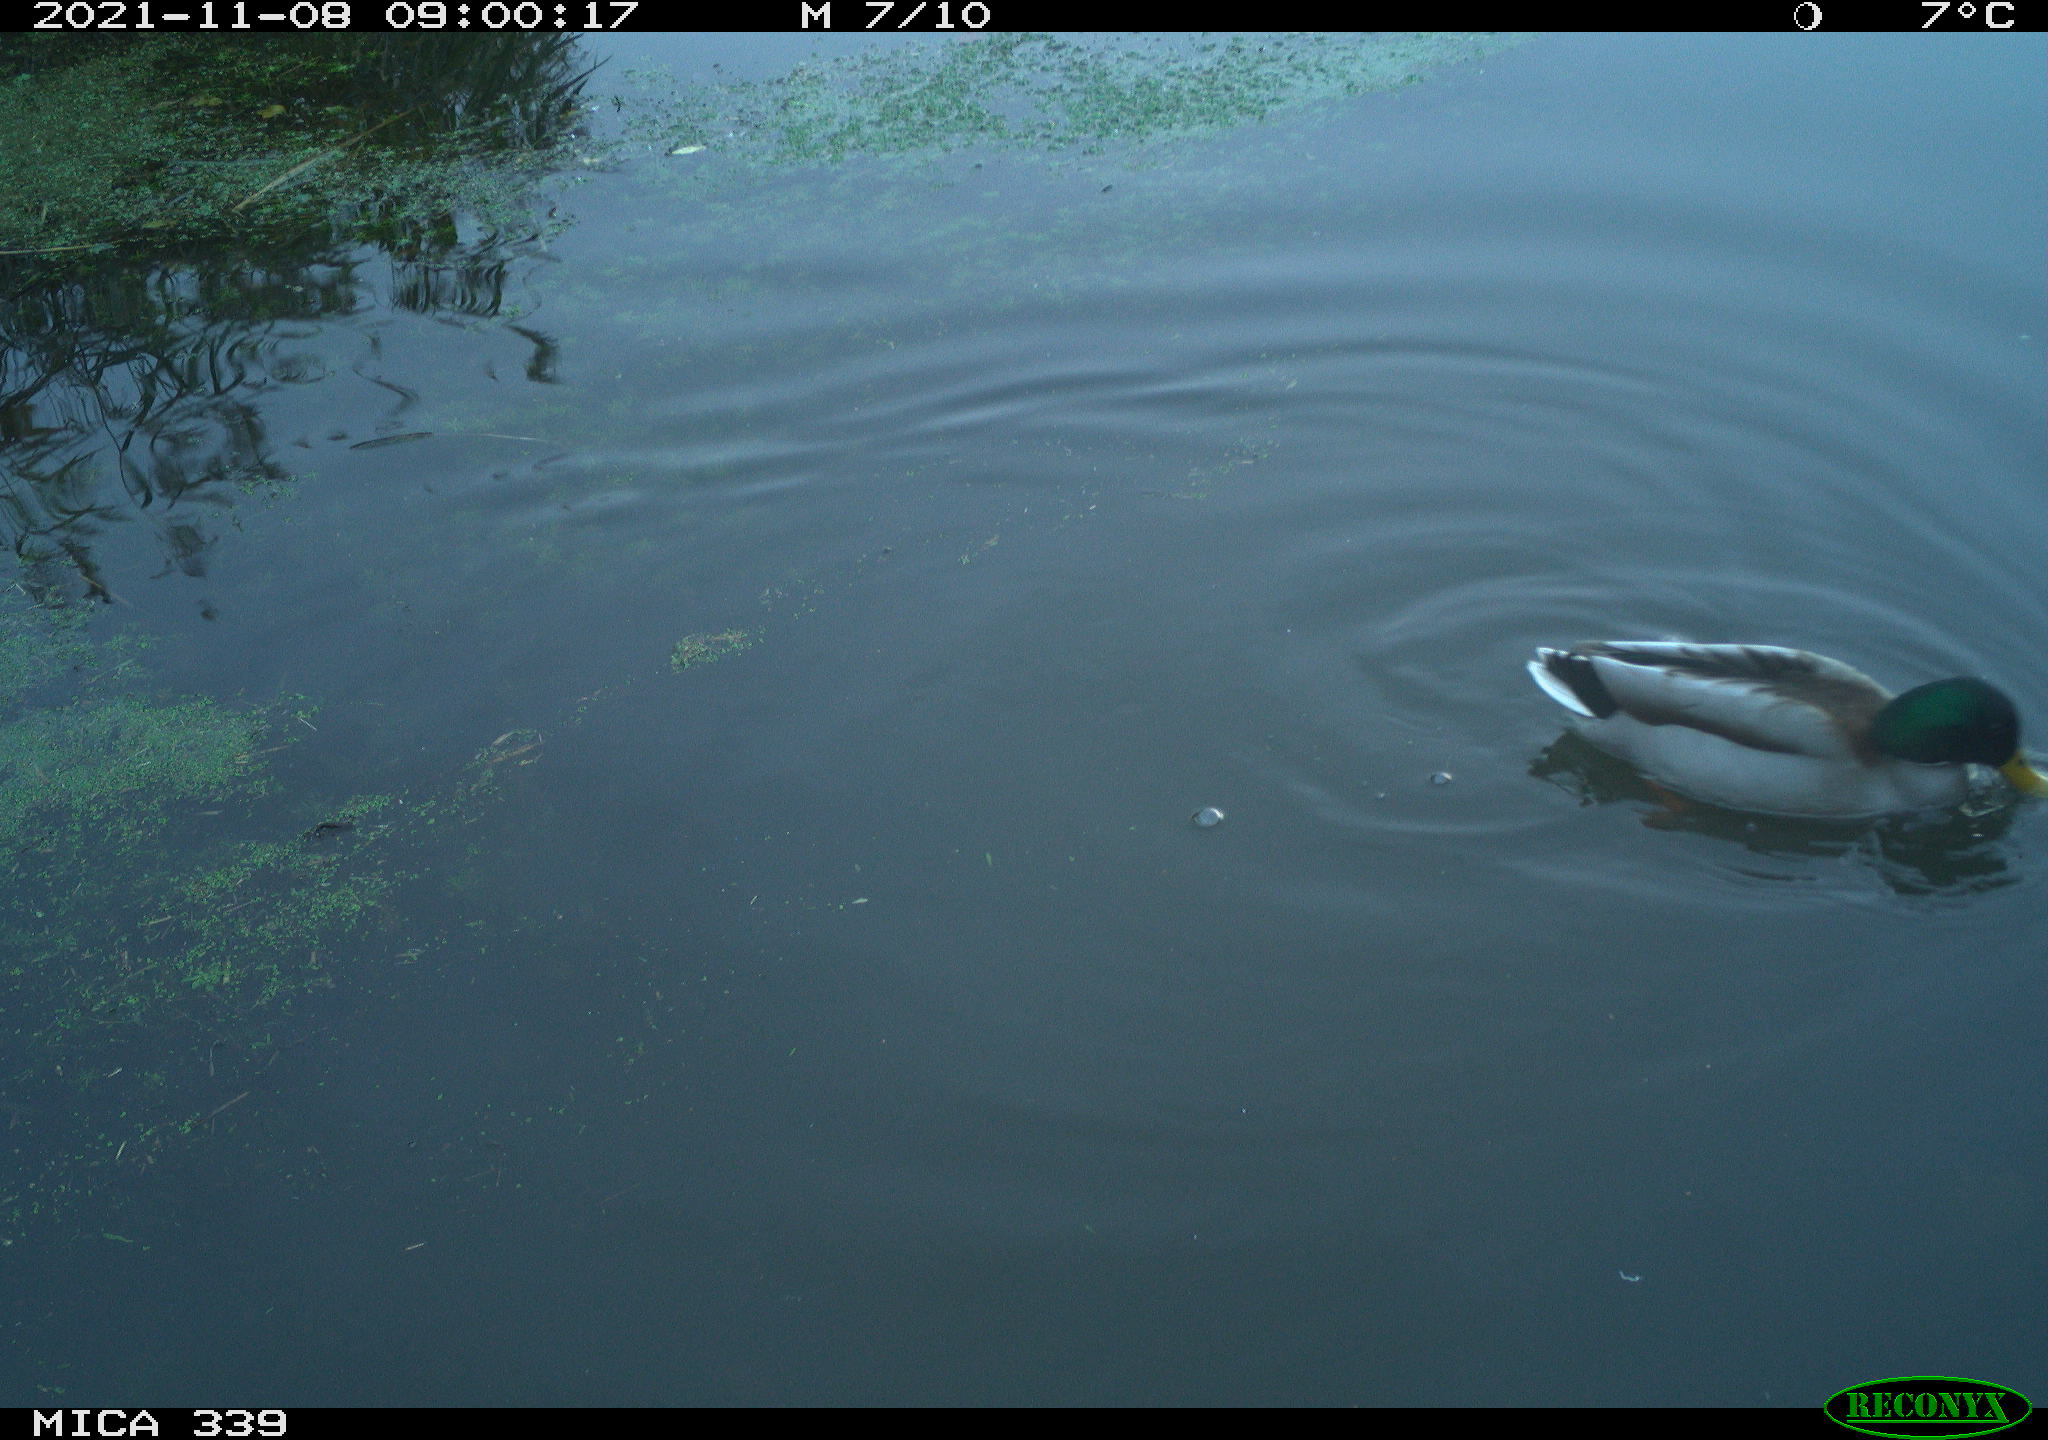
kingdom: Animalia
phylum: Chordata
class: Aves
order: Anseriformes
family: Anatidae
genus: Anas
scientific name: Anas platyrhynchos
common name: Mallard
